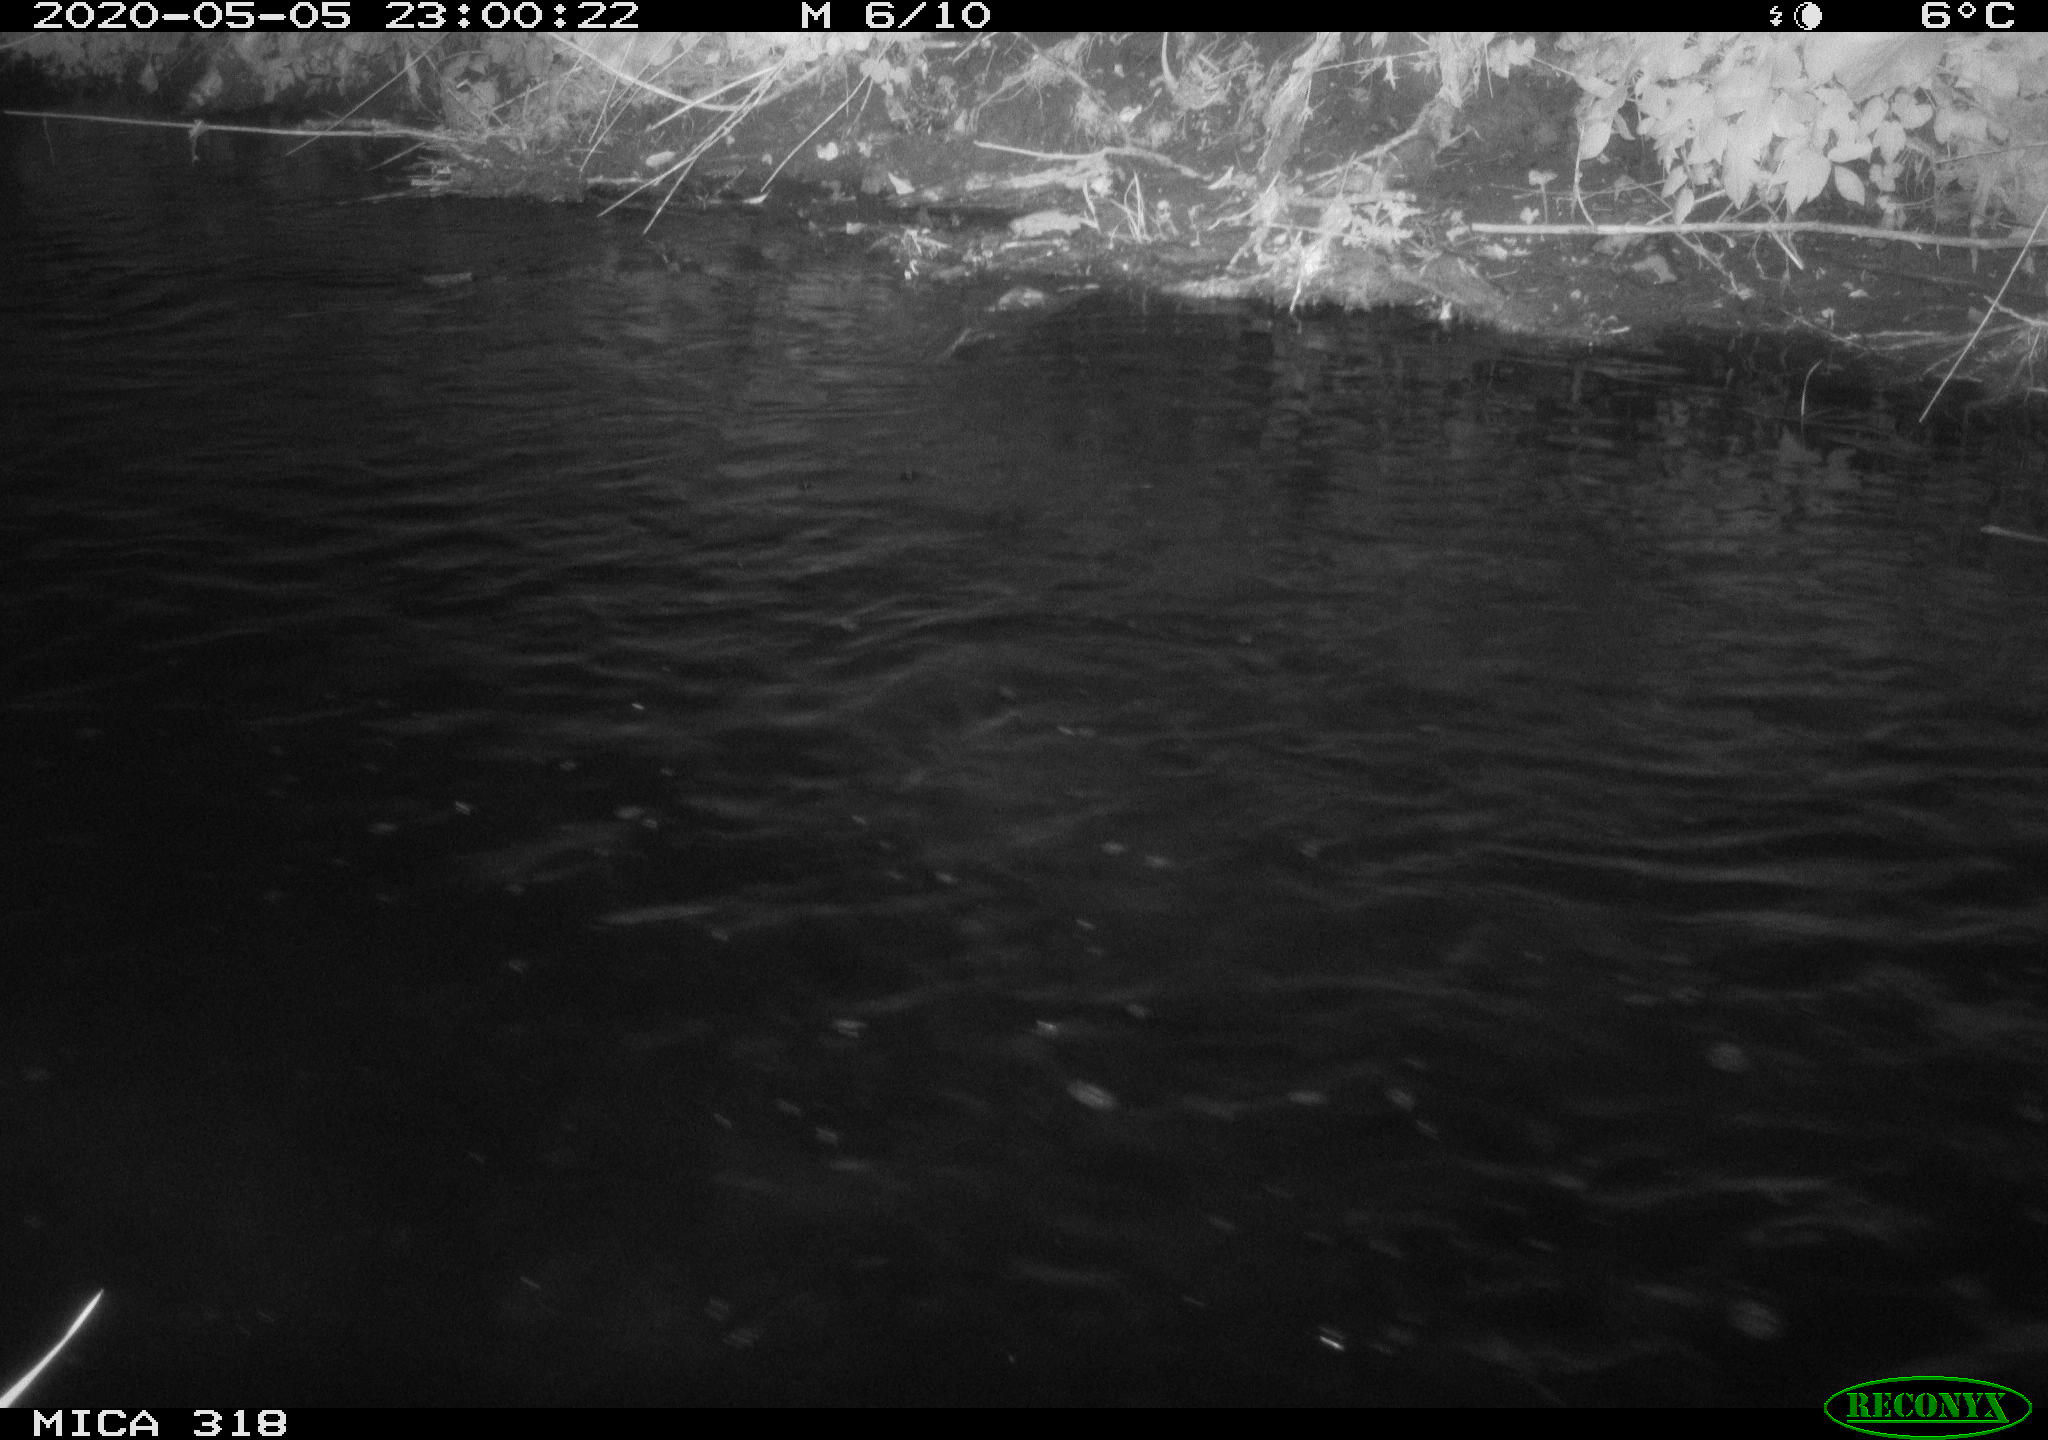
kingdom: Animalia
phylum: Chordata
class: Aves
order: Anseriformes
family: Anatidae
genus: Anas
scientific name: Anas platyrhynchos
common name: Mallard
